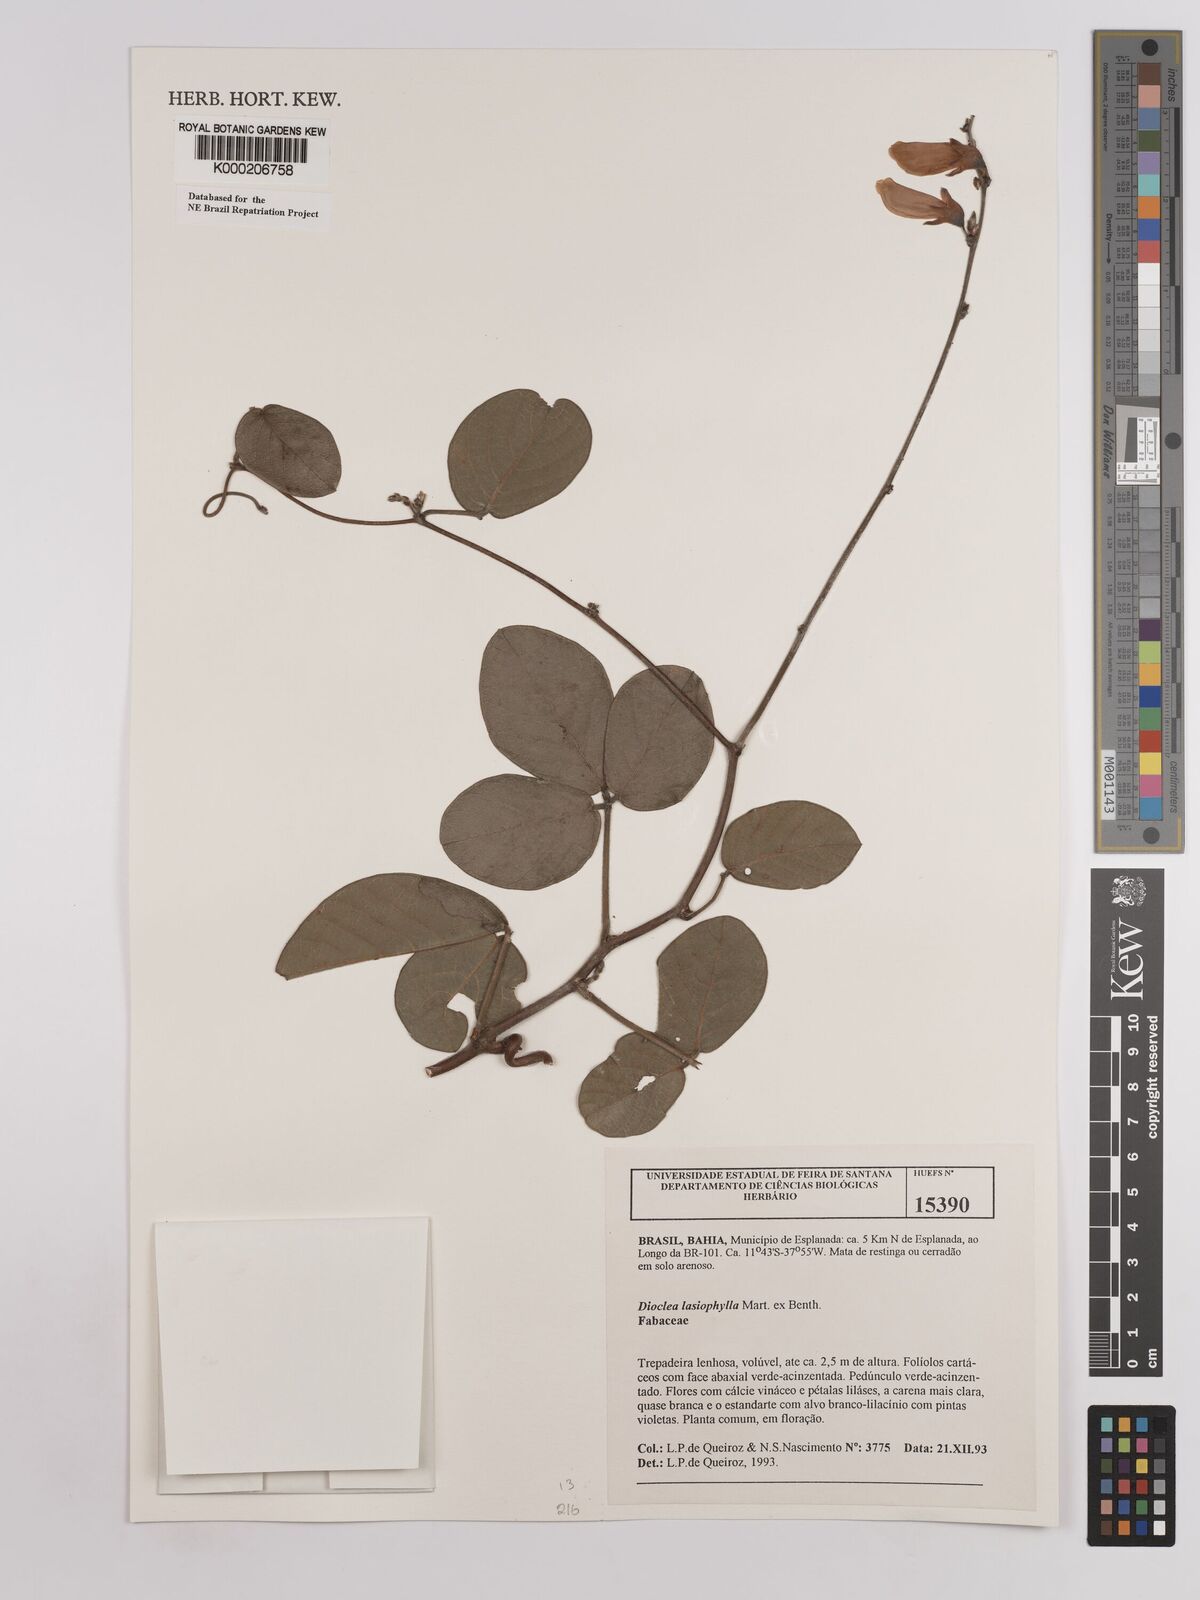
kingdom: Plantae
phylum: Tracheophyta
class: Magnoliopsida
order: Fabales
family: Fabaceae
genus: Dioclea
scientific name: Dioclea lasiophylla
